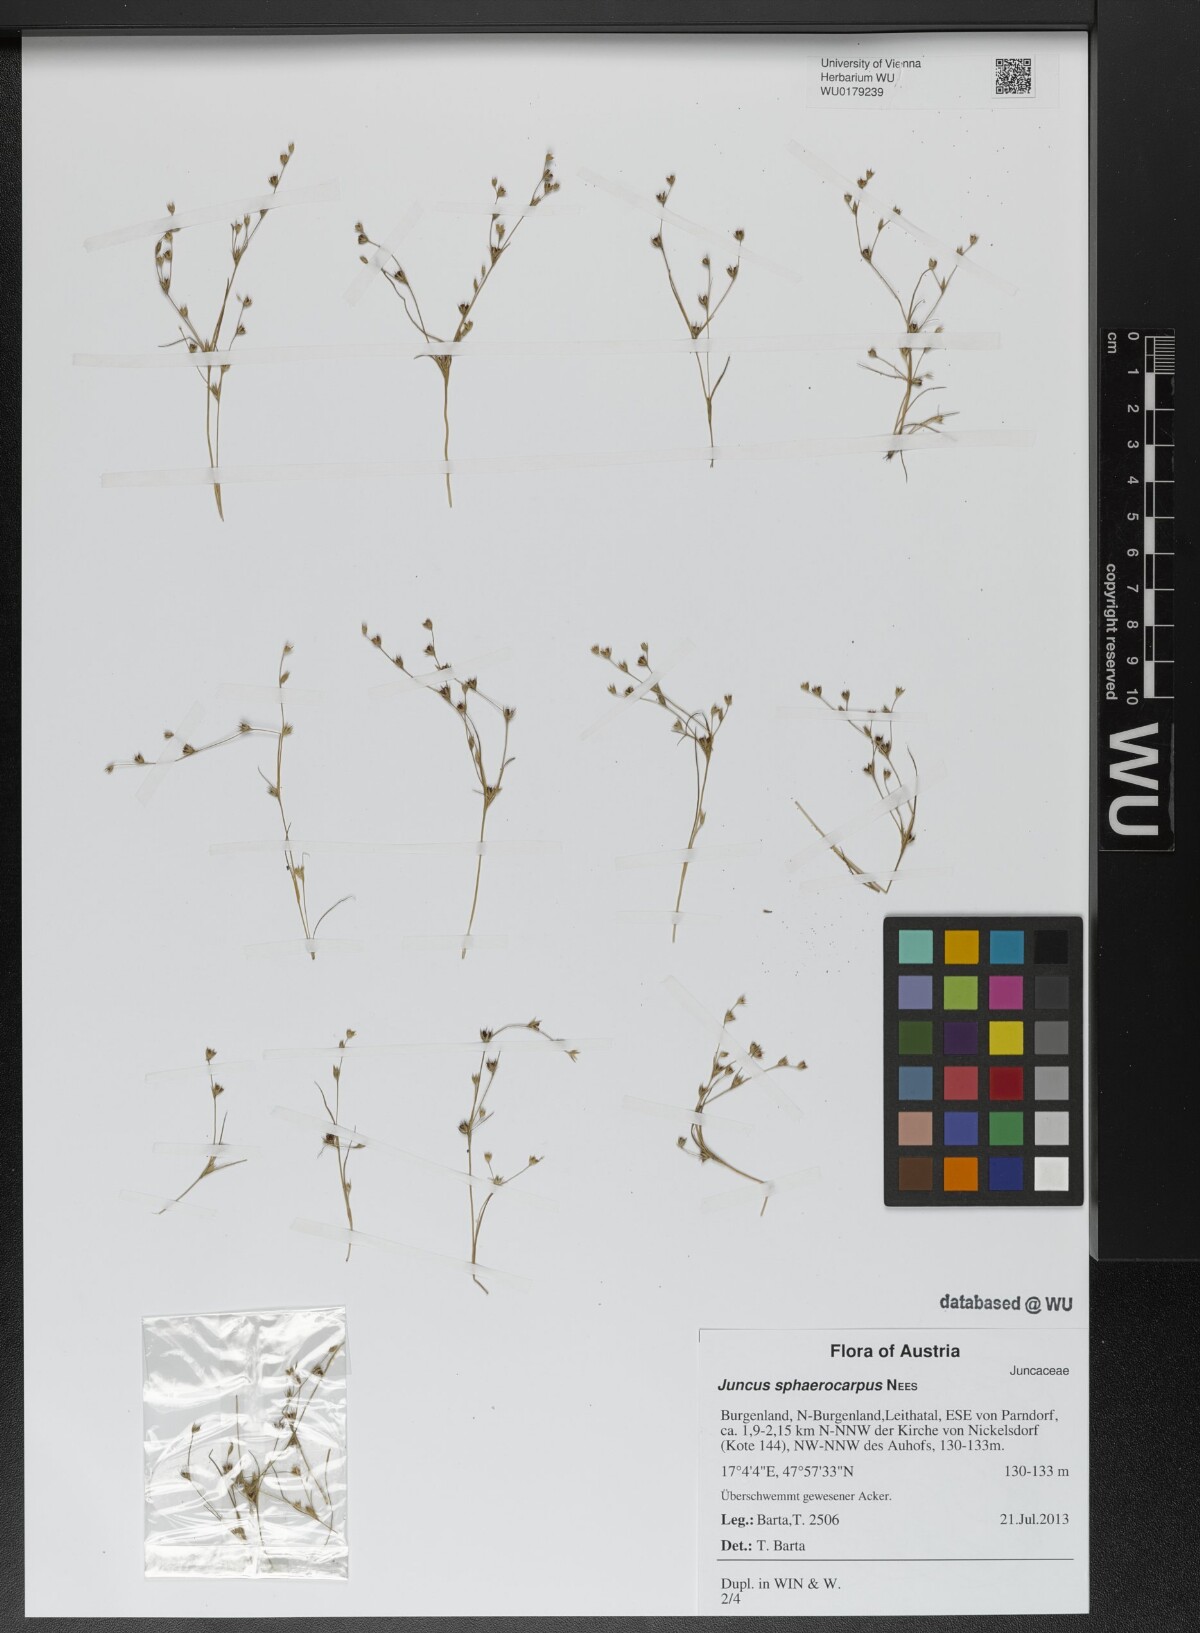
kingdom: Plantae
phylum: Tracheophyta
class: Liliopsida
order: Poales
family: Juncaceae
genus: Juncus
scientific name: Juncus sphaerocarpus
